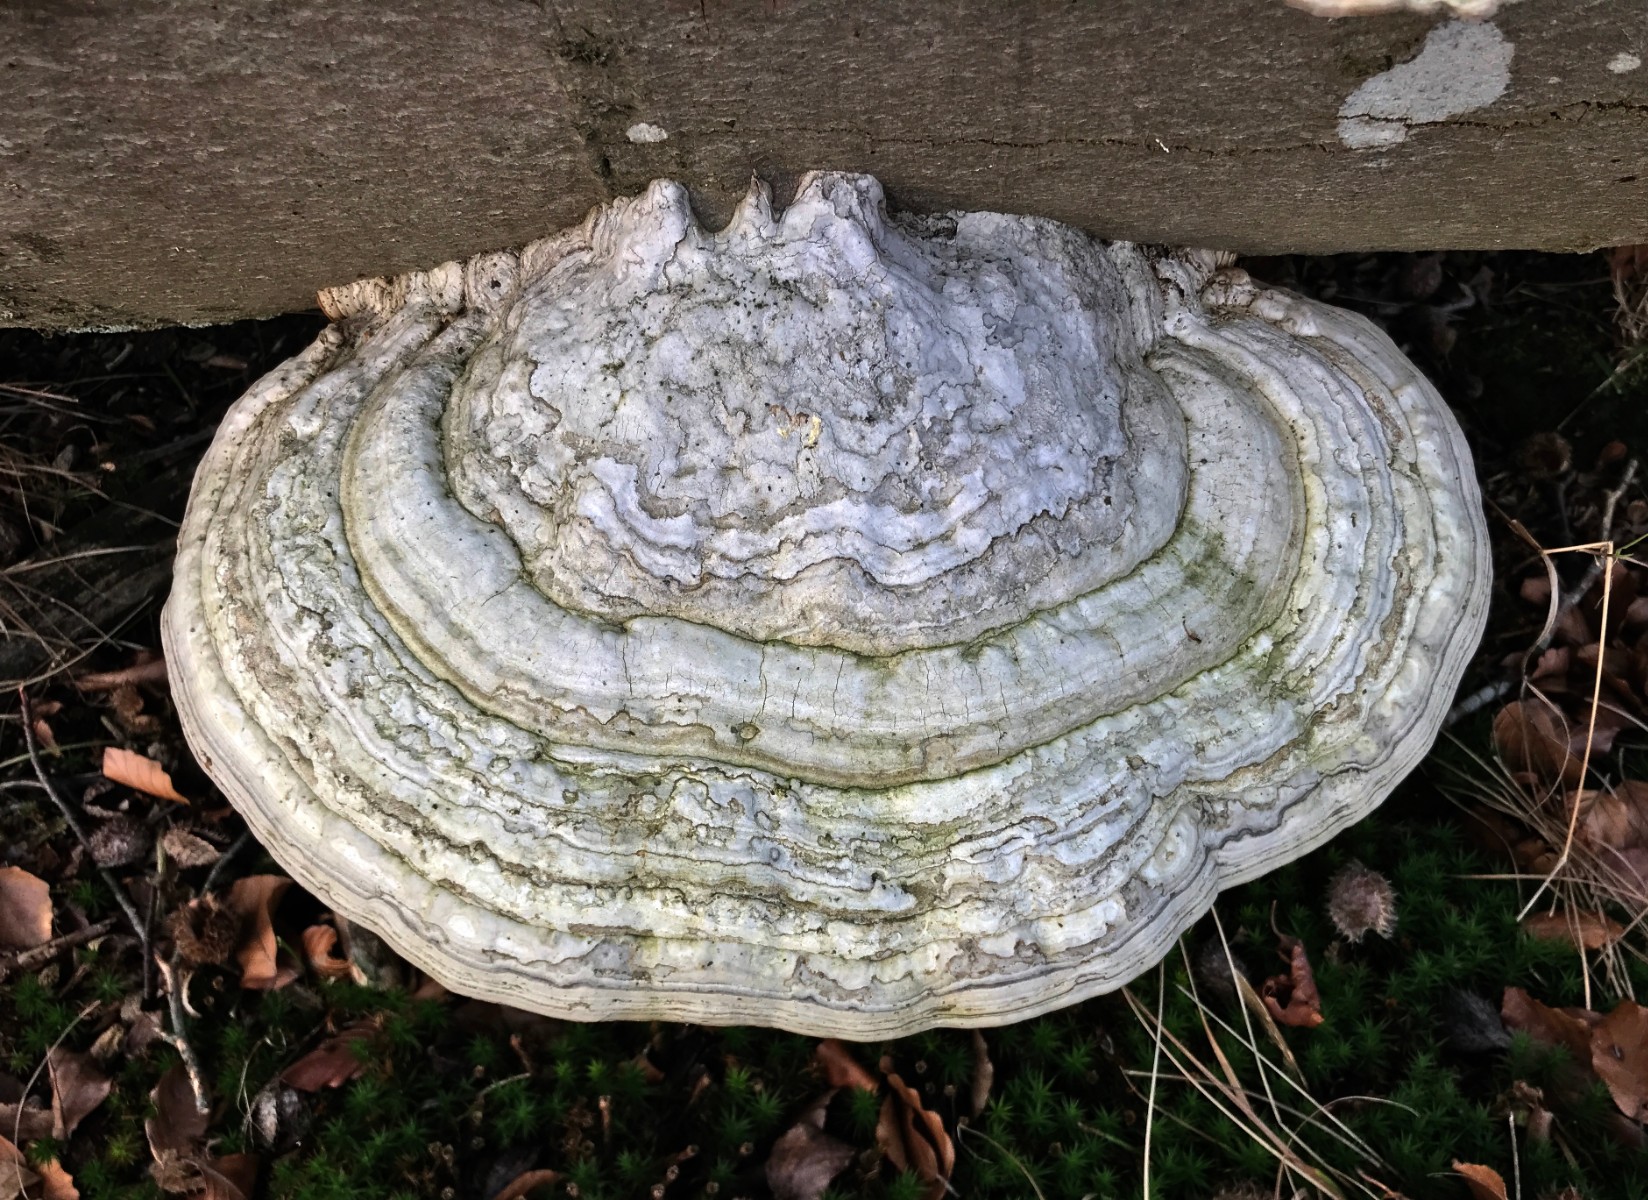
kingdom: Fungi
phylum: Basidiomycota
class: Agaricomycetes
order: Polyporales
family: Polyporaceae
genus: Fomes
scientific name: Fomes fomentarius
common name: tøndersvamp
